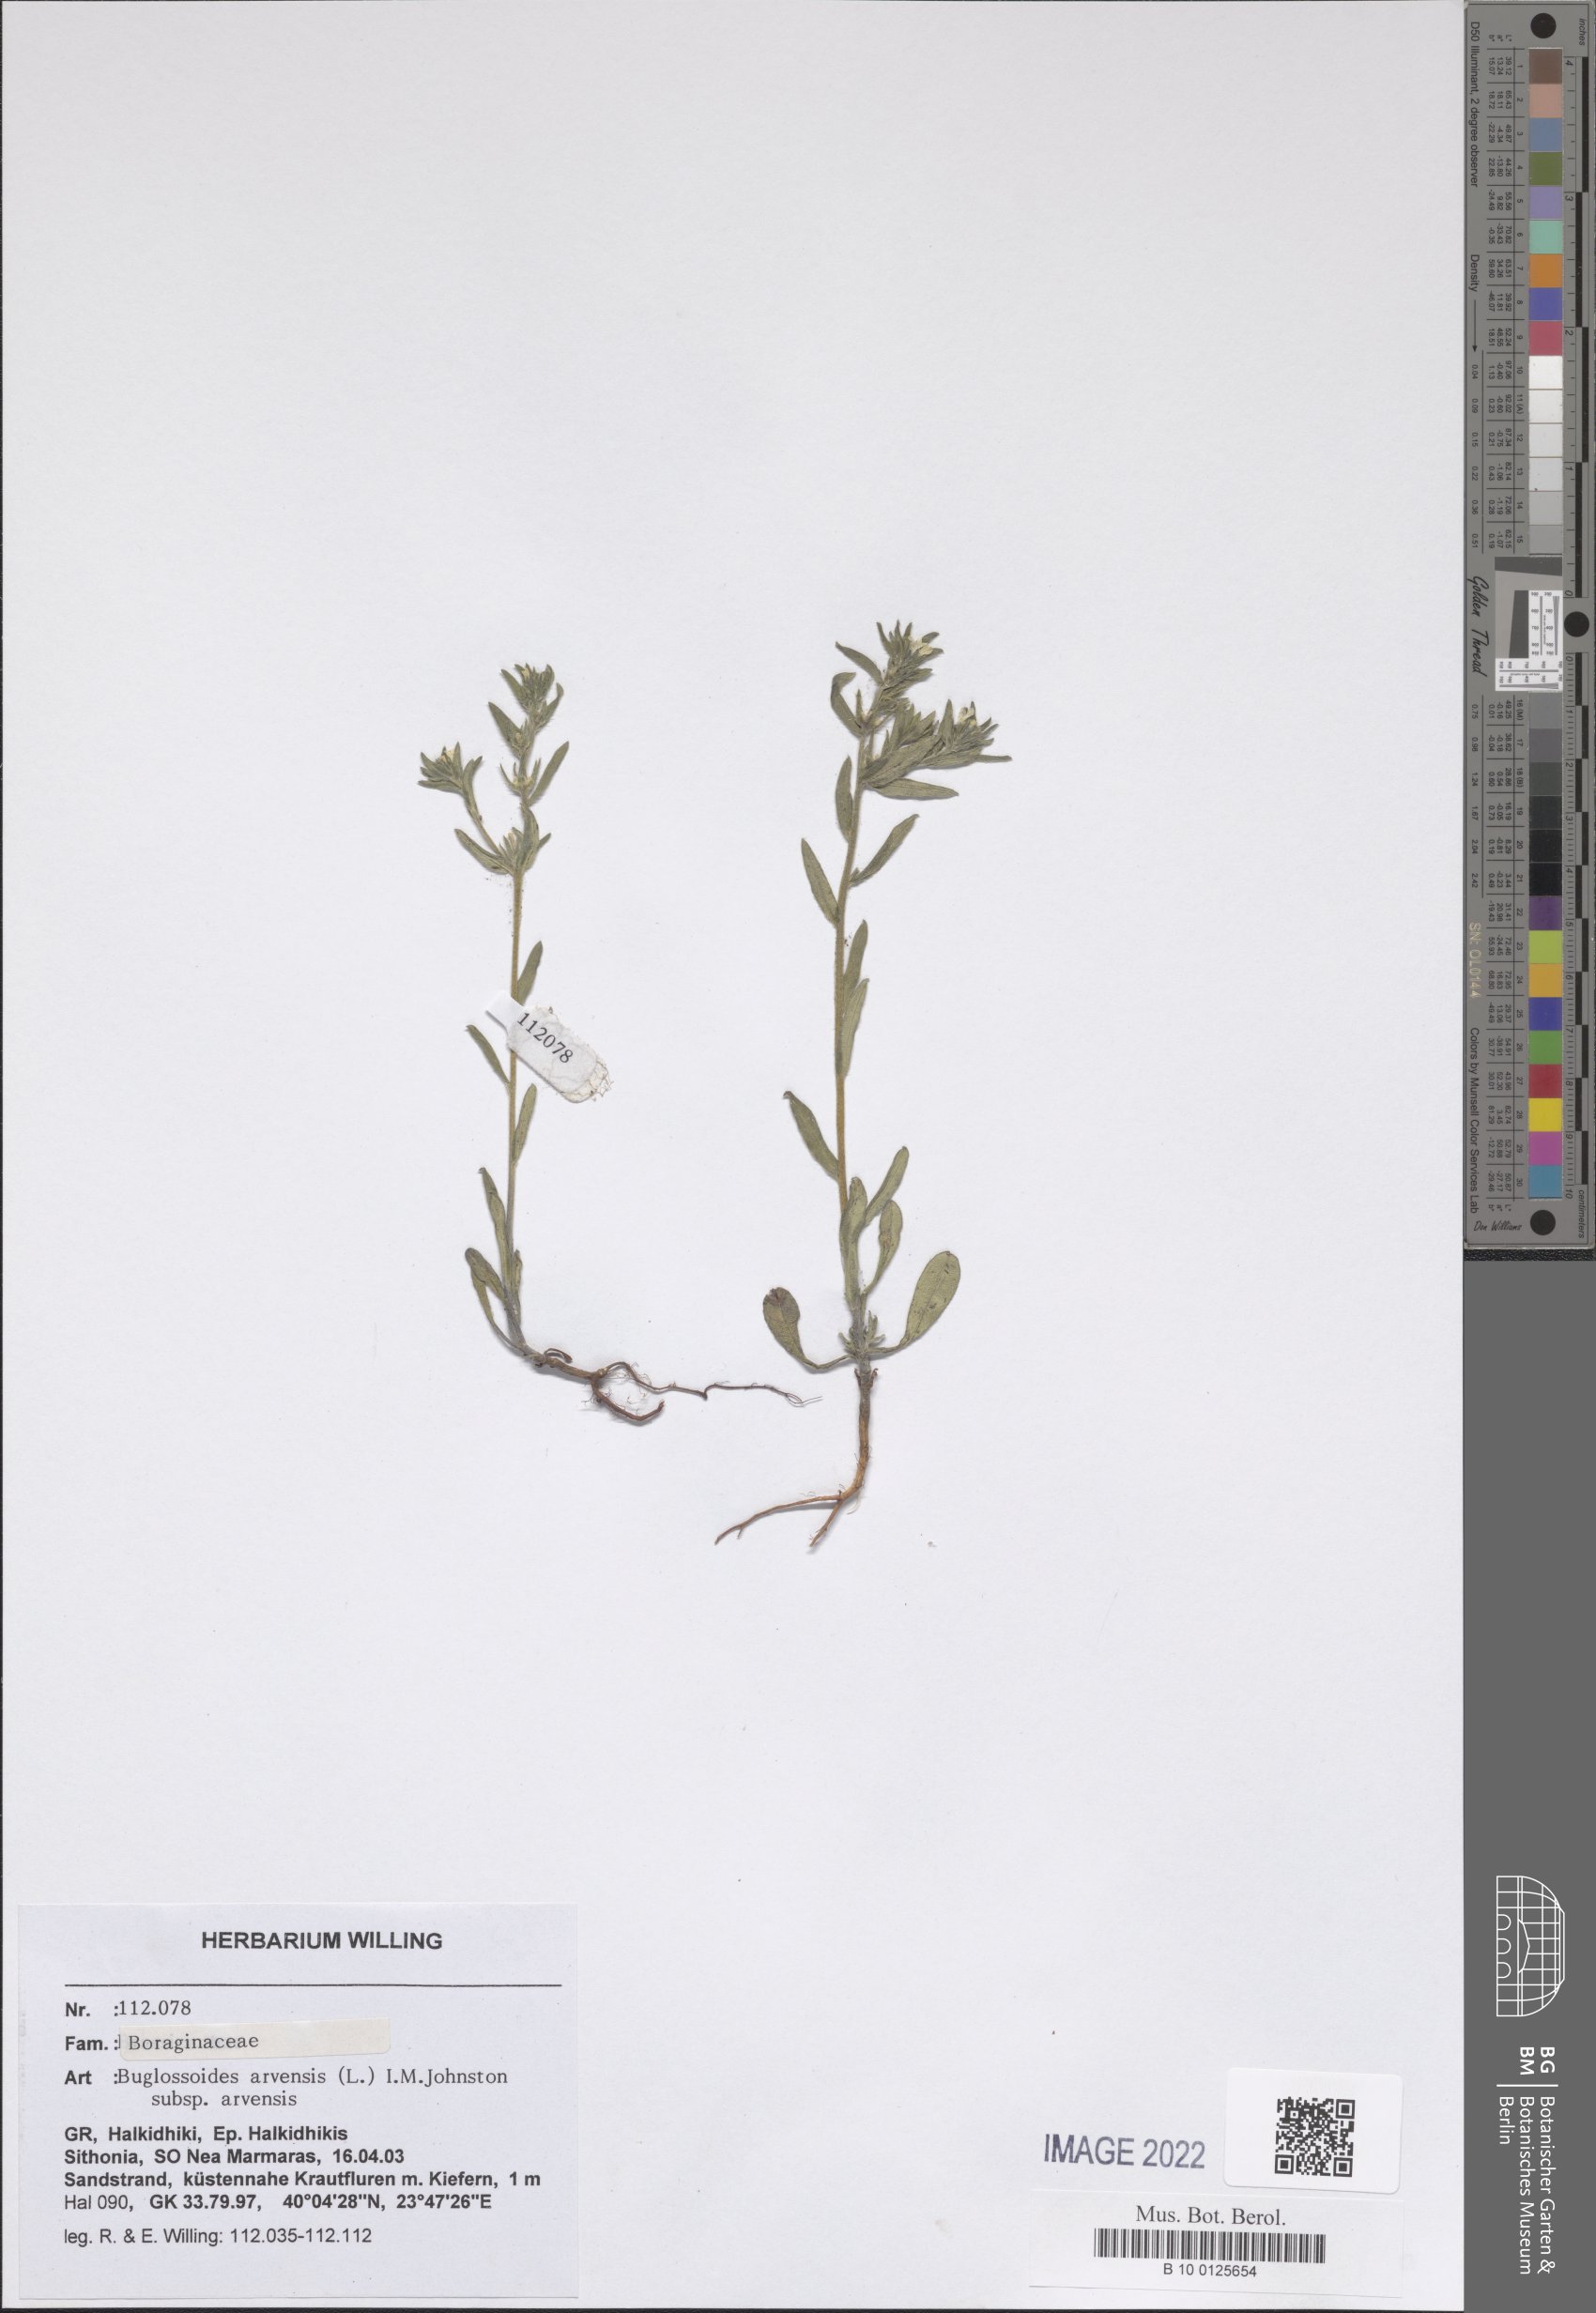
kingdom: Plantae
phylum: Tracheophyta
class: Magnoliopsida
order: Boraginales
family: Boraginaceae
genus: Buglossoides
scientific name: Buglossoides arvensis
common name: Corn gromwell
